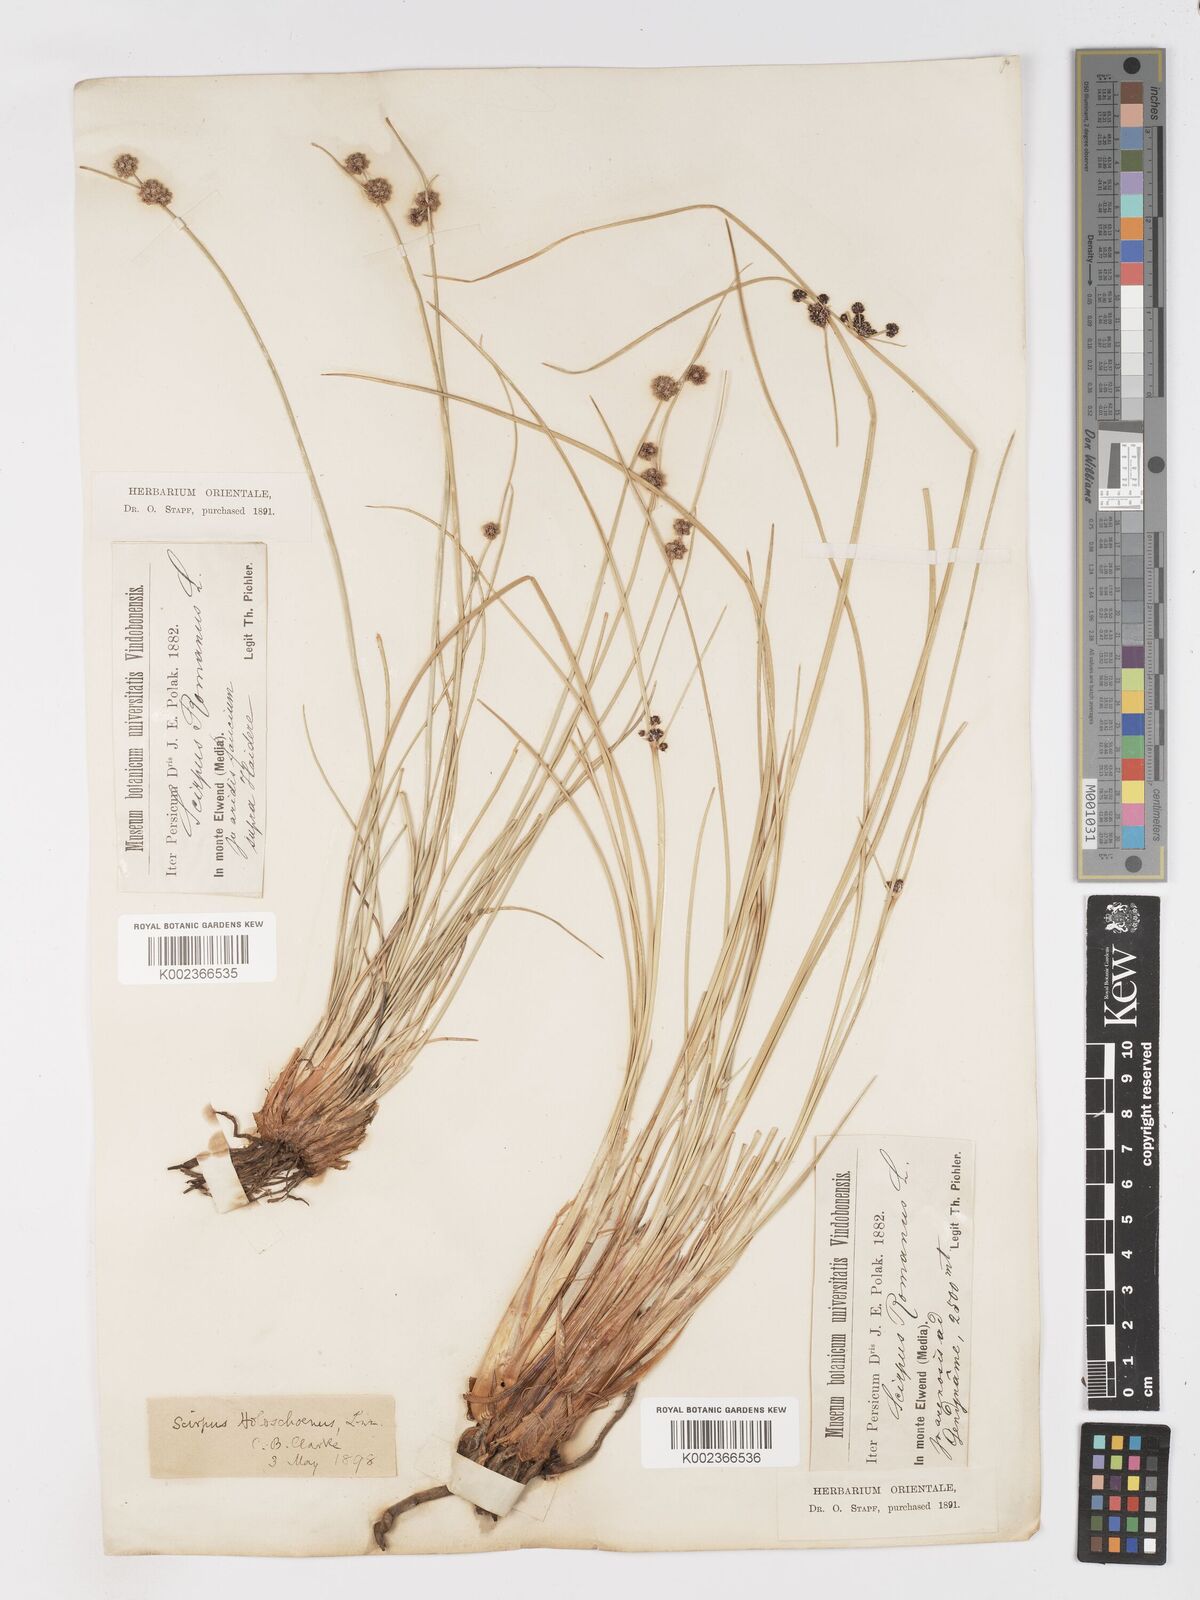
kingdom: Plantae
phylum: Tracheophyta
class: Liliopsida
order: Poales
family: Cyperaceae
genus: Scirpoides
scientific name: Scirpoides holoschoenus
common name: Round-headed club-rush
